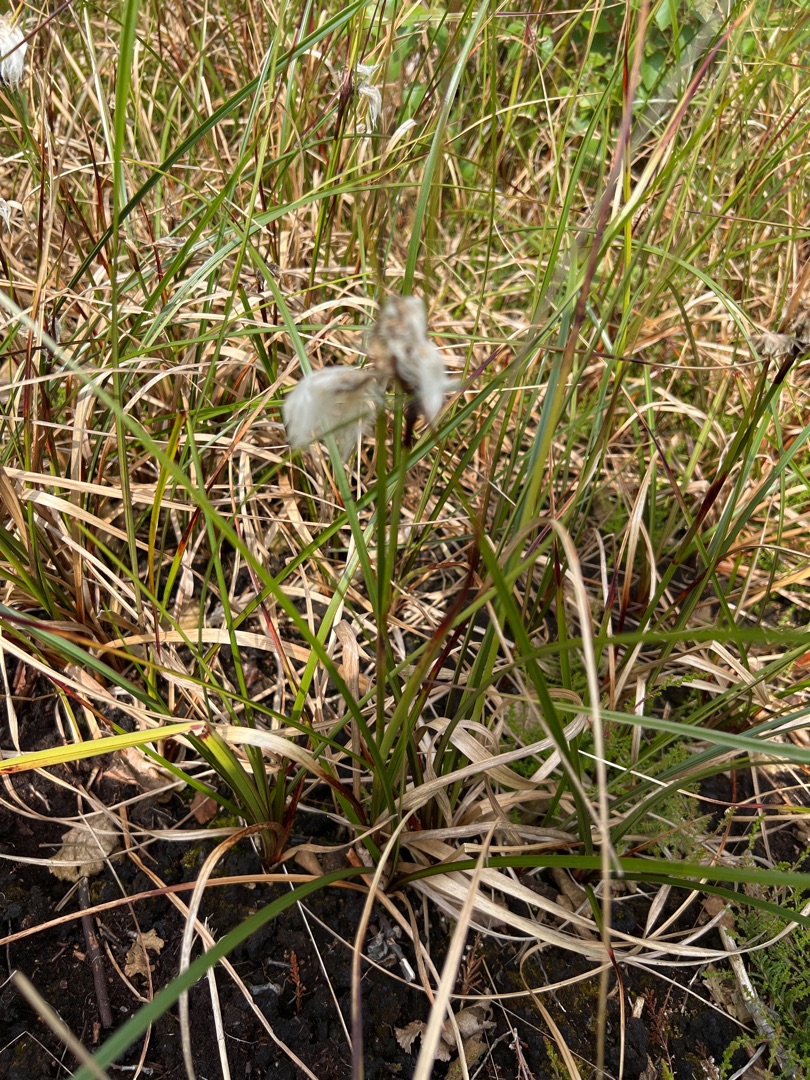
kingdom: Plantae
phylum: Tracheophyta
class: Liliopsida
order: Poales
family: Cyperaceae
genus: Eriophorum
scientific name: Eriophorum angustifolium
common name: Smalbladet kæruld
